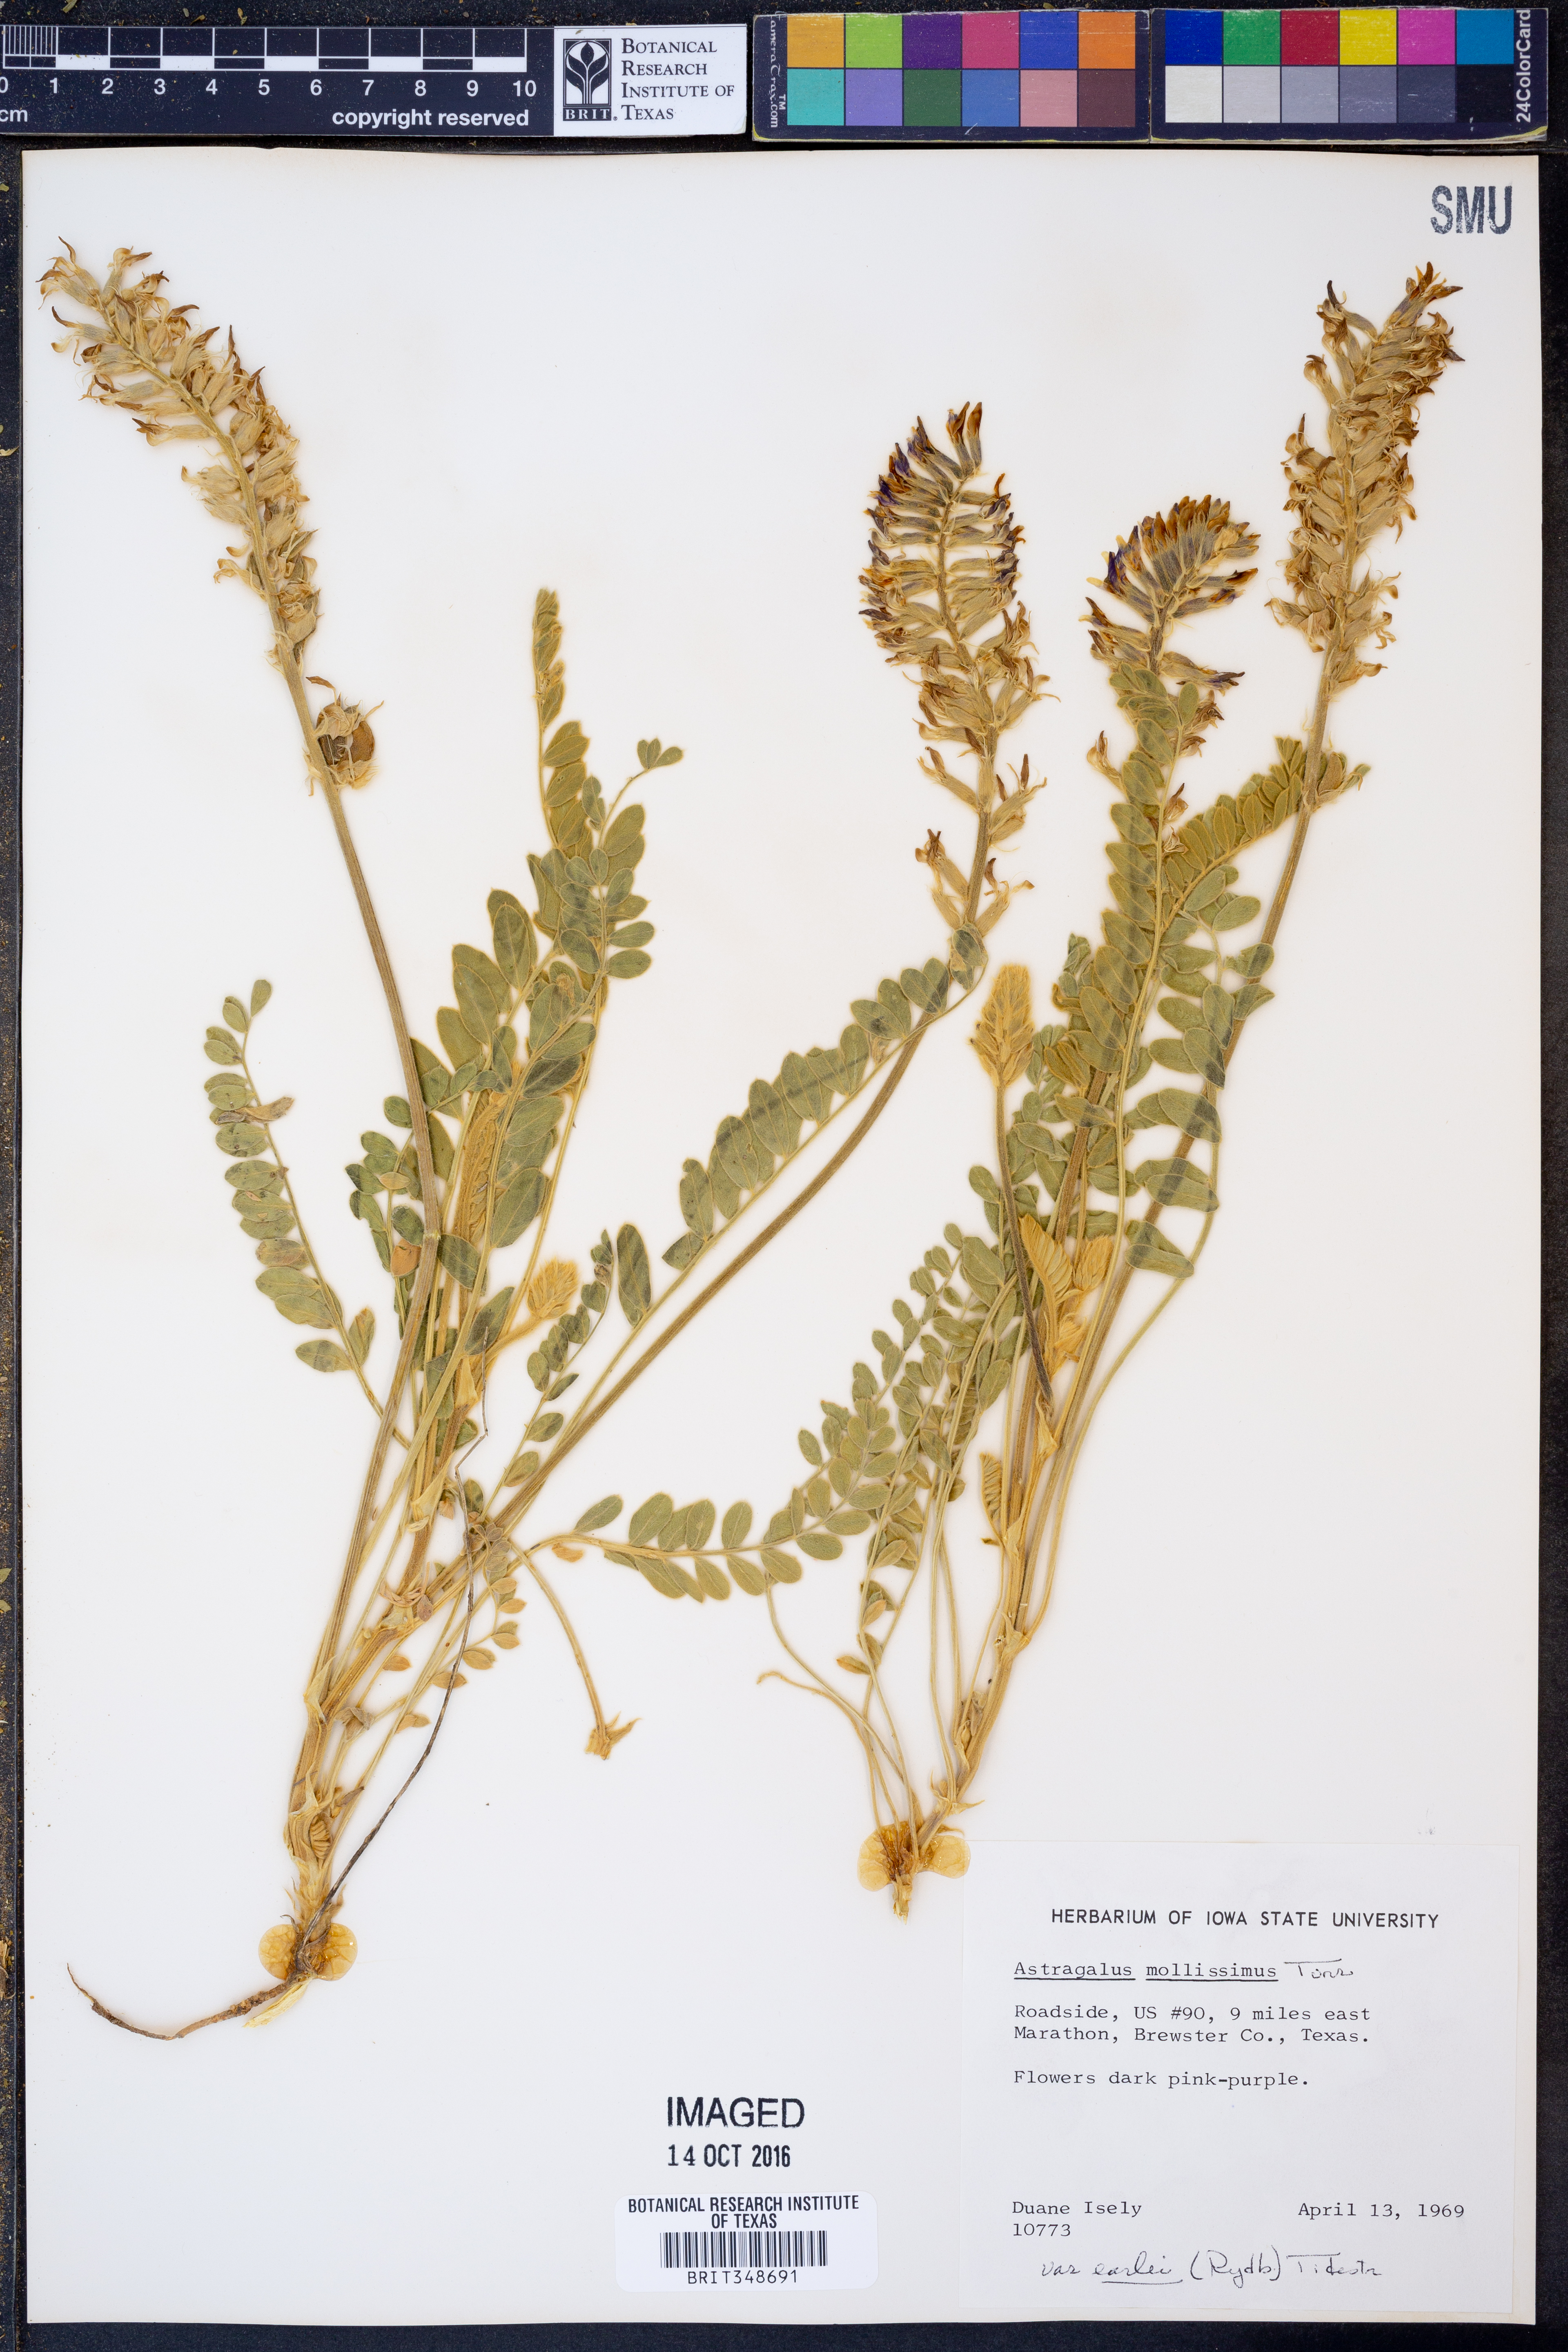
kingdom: Plantae
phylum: Tracheophyta
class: Magnoliopsida
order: Fabales
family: Fabaceae
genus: Astragalus
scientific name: Astragalus mollissimus
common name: Woolly locoweed
